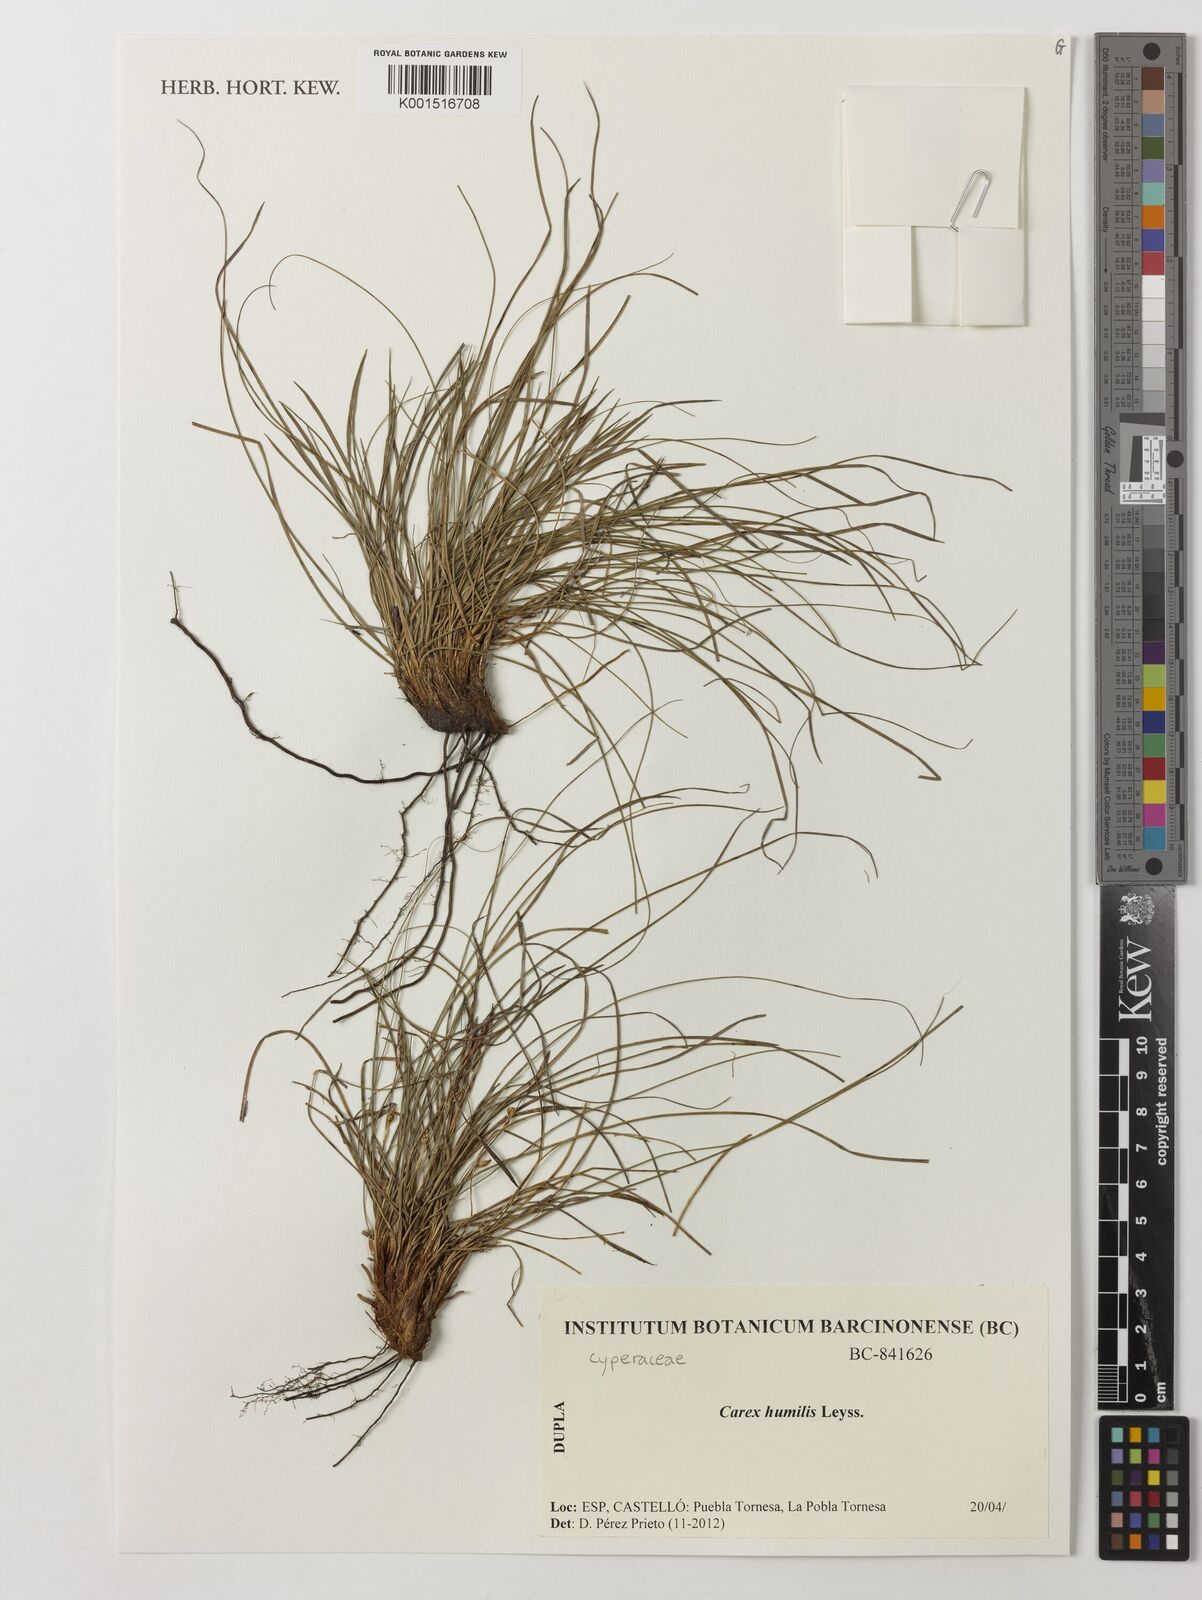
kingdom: Plantae
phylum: Tracheophyta
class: Liliopsida
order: Poales
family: Cyperaceae
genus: Carex
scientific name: Carex humilis
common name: Dwarf sedge
